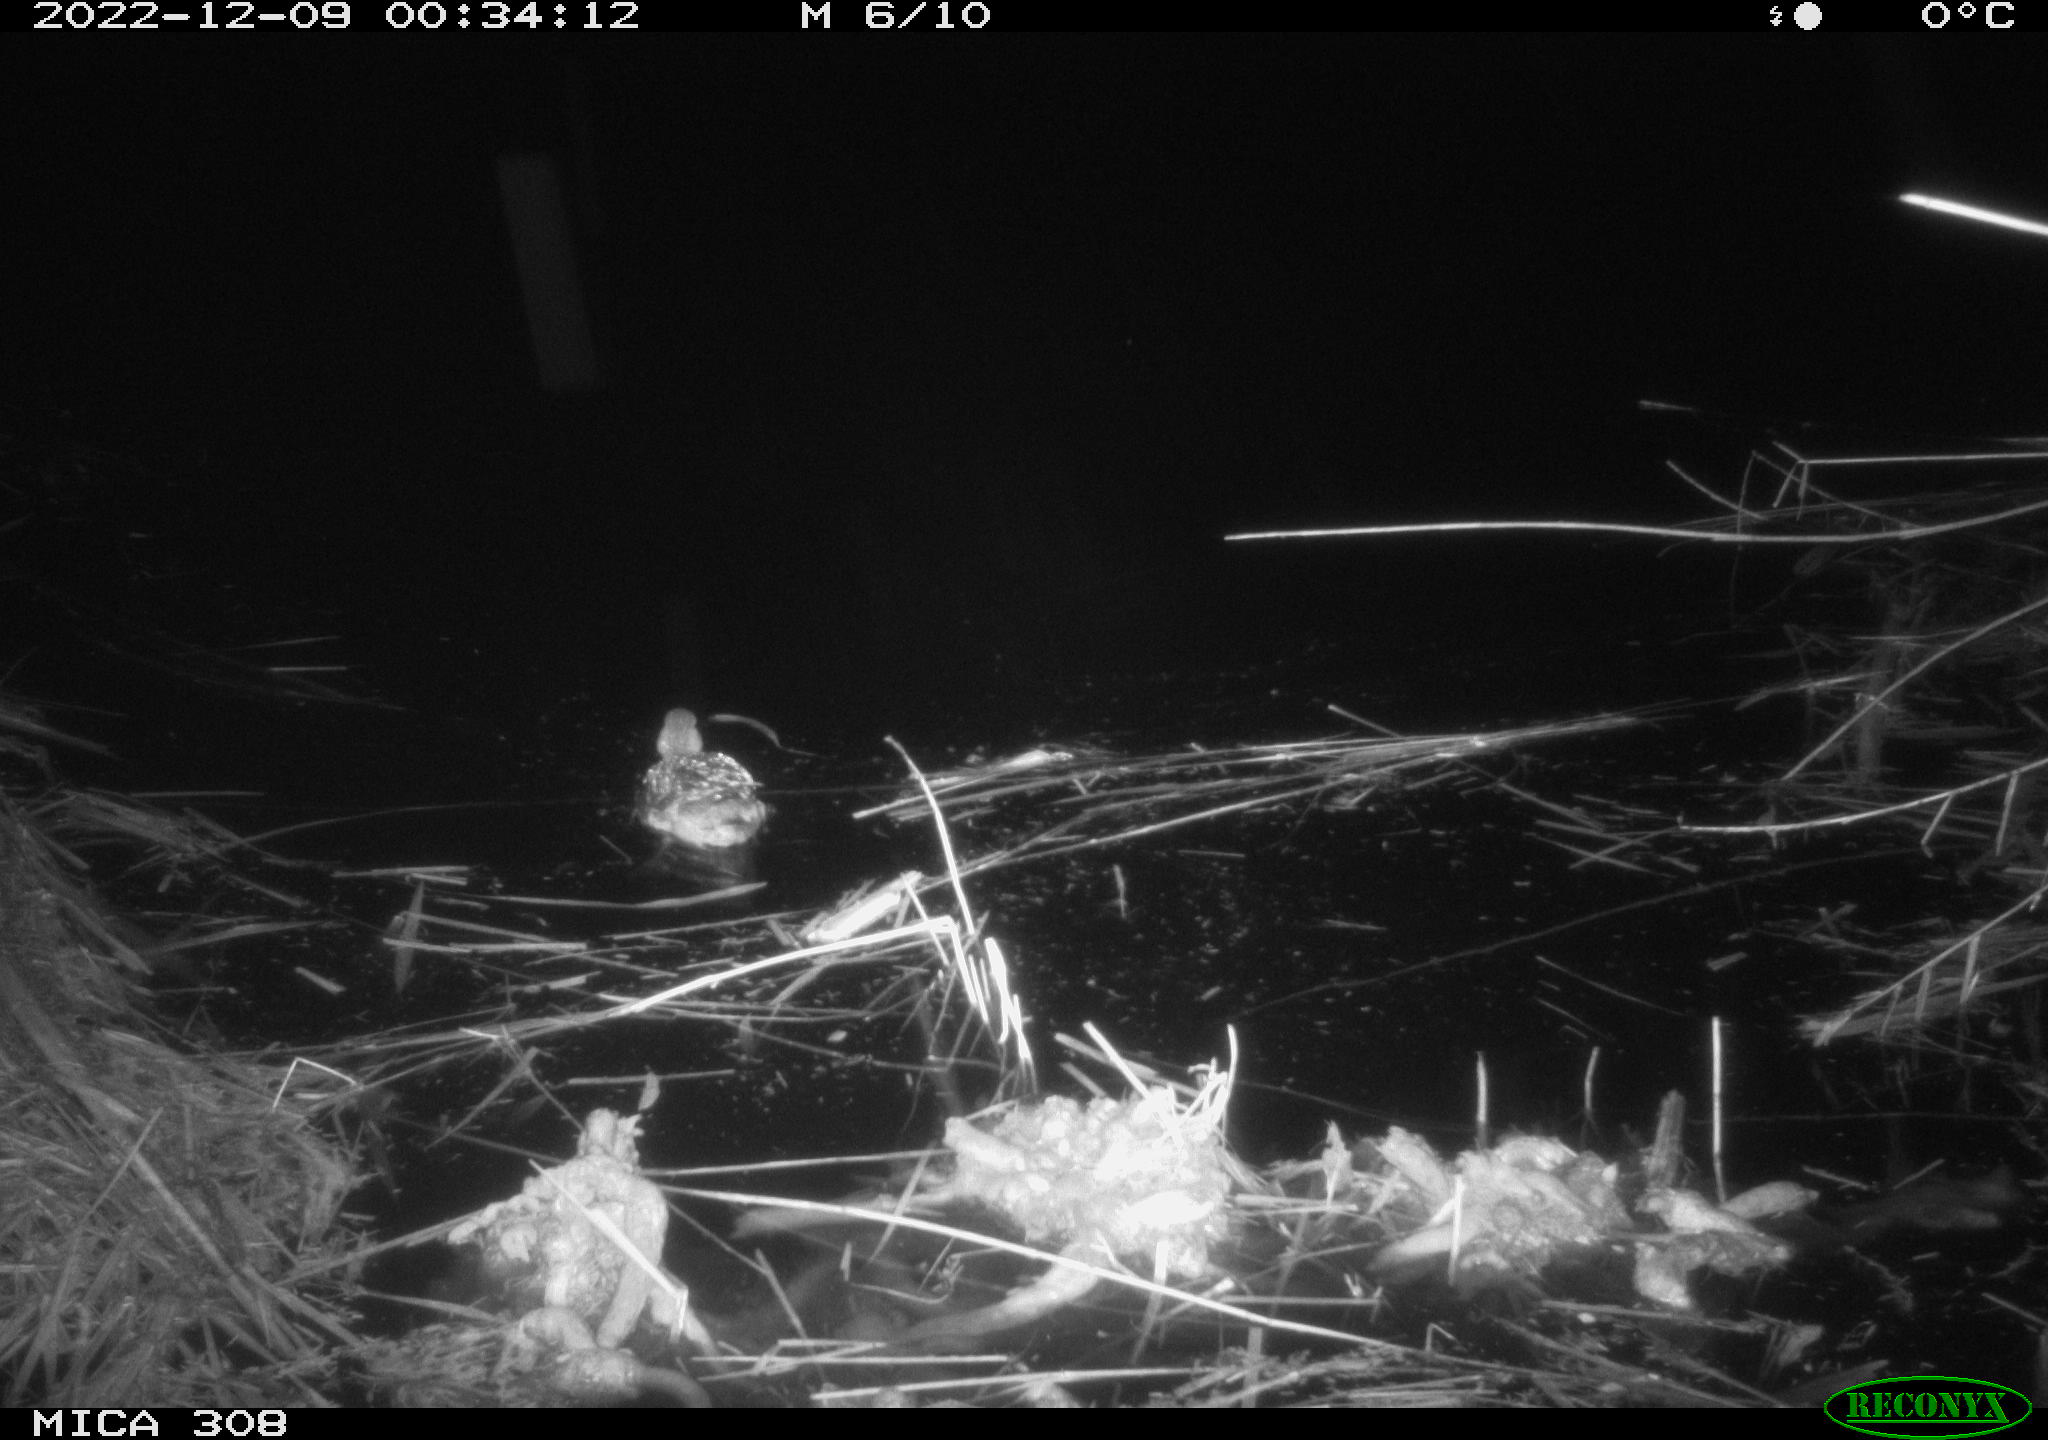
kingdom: Animalia
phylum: Chordata
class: Aves
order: Anseriformes
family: Anatidae
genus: Anas
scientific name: Anas
